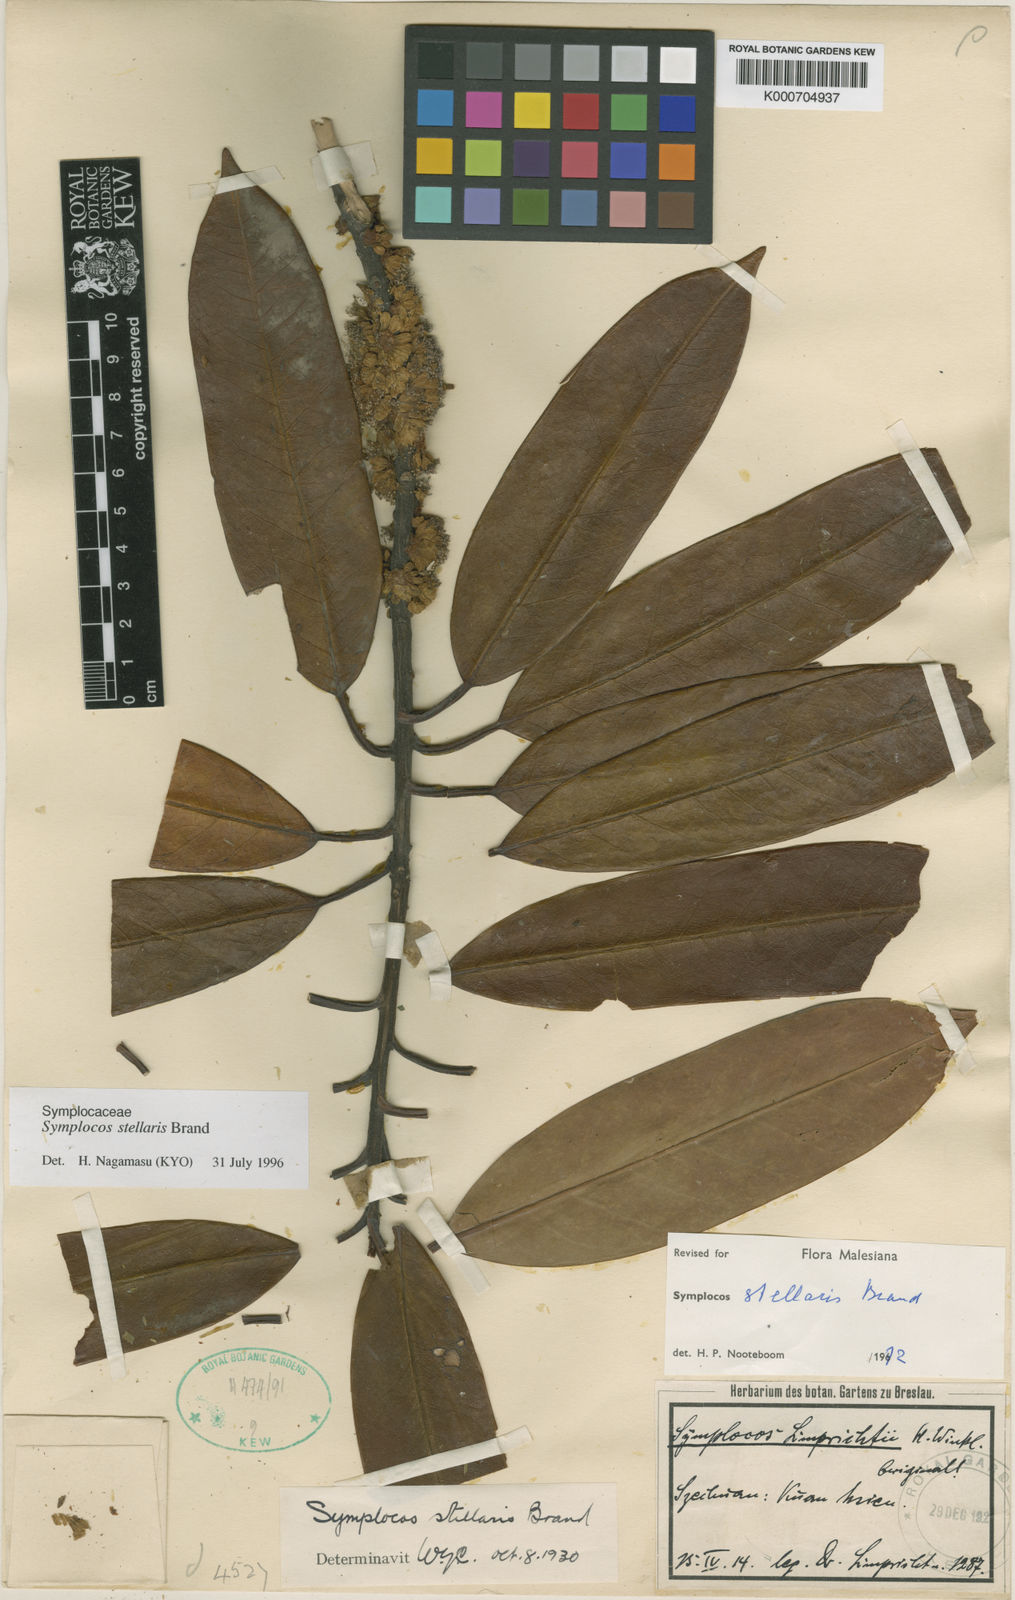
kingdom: Plantae
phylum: Tracheophyta
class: Magnoliopsida
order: Ericales
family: Symplocaceae
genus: Symplocos
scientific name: Symplocos glauca
